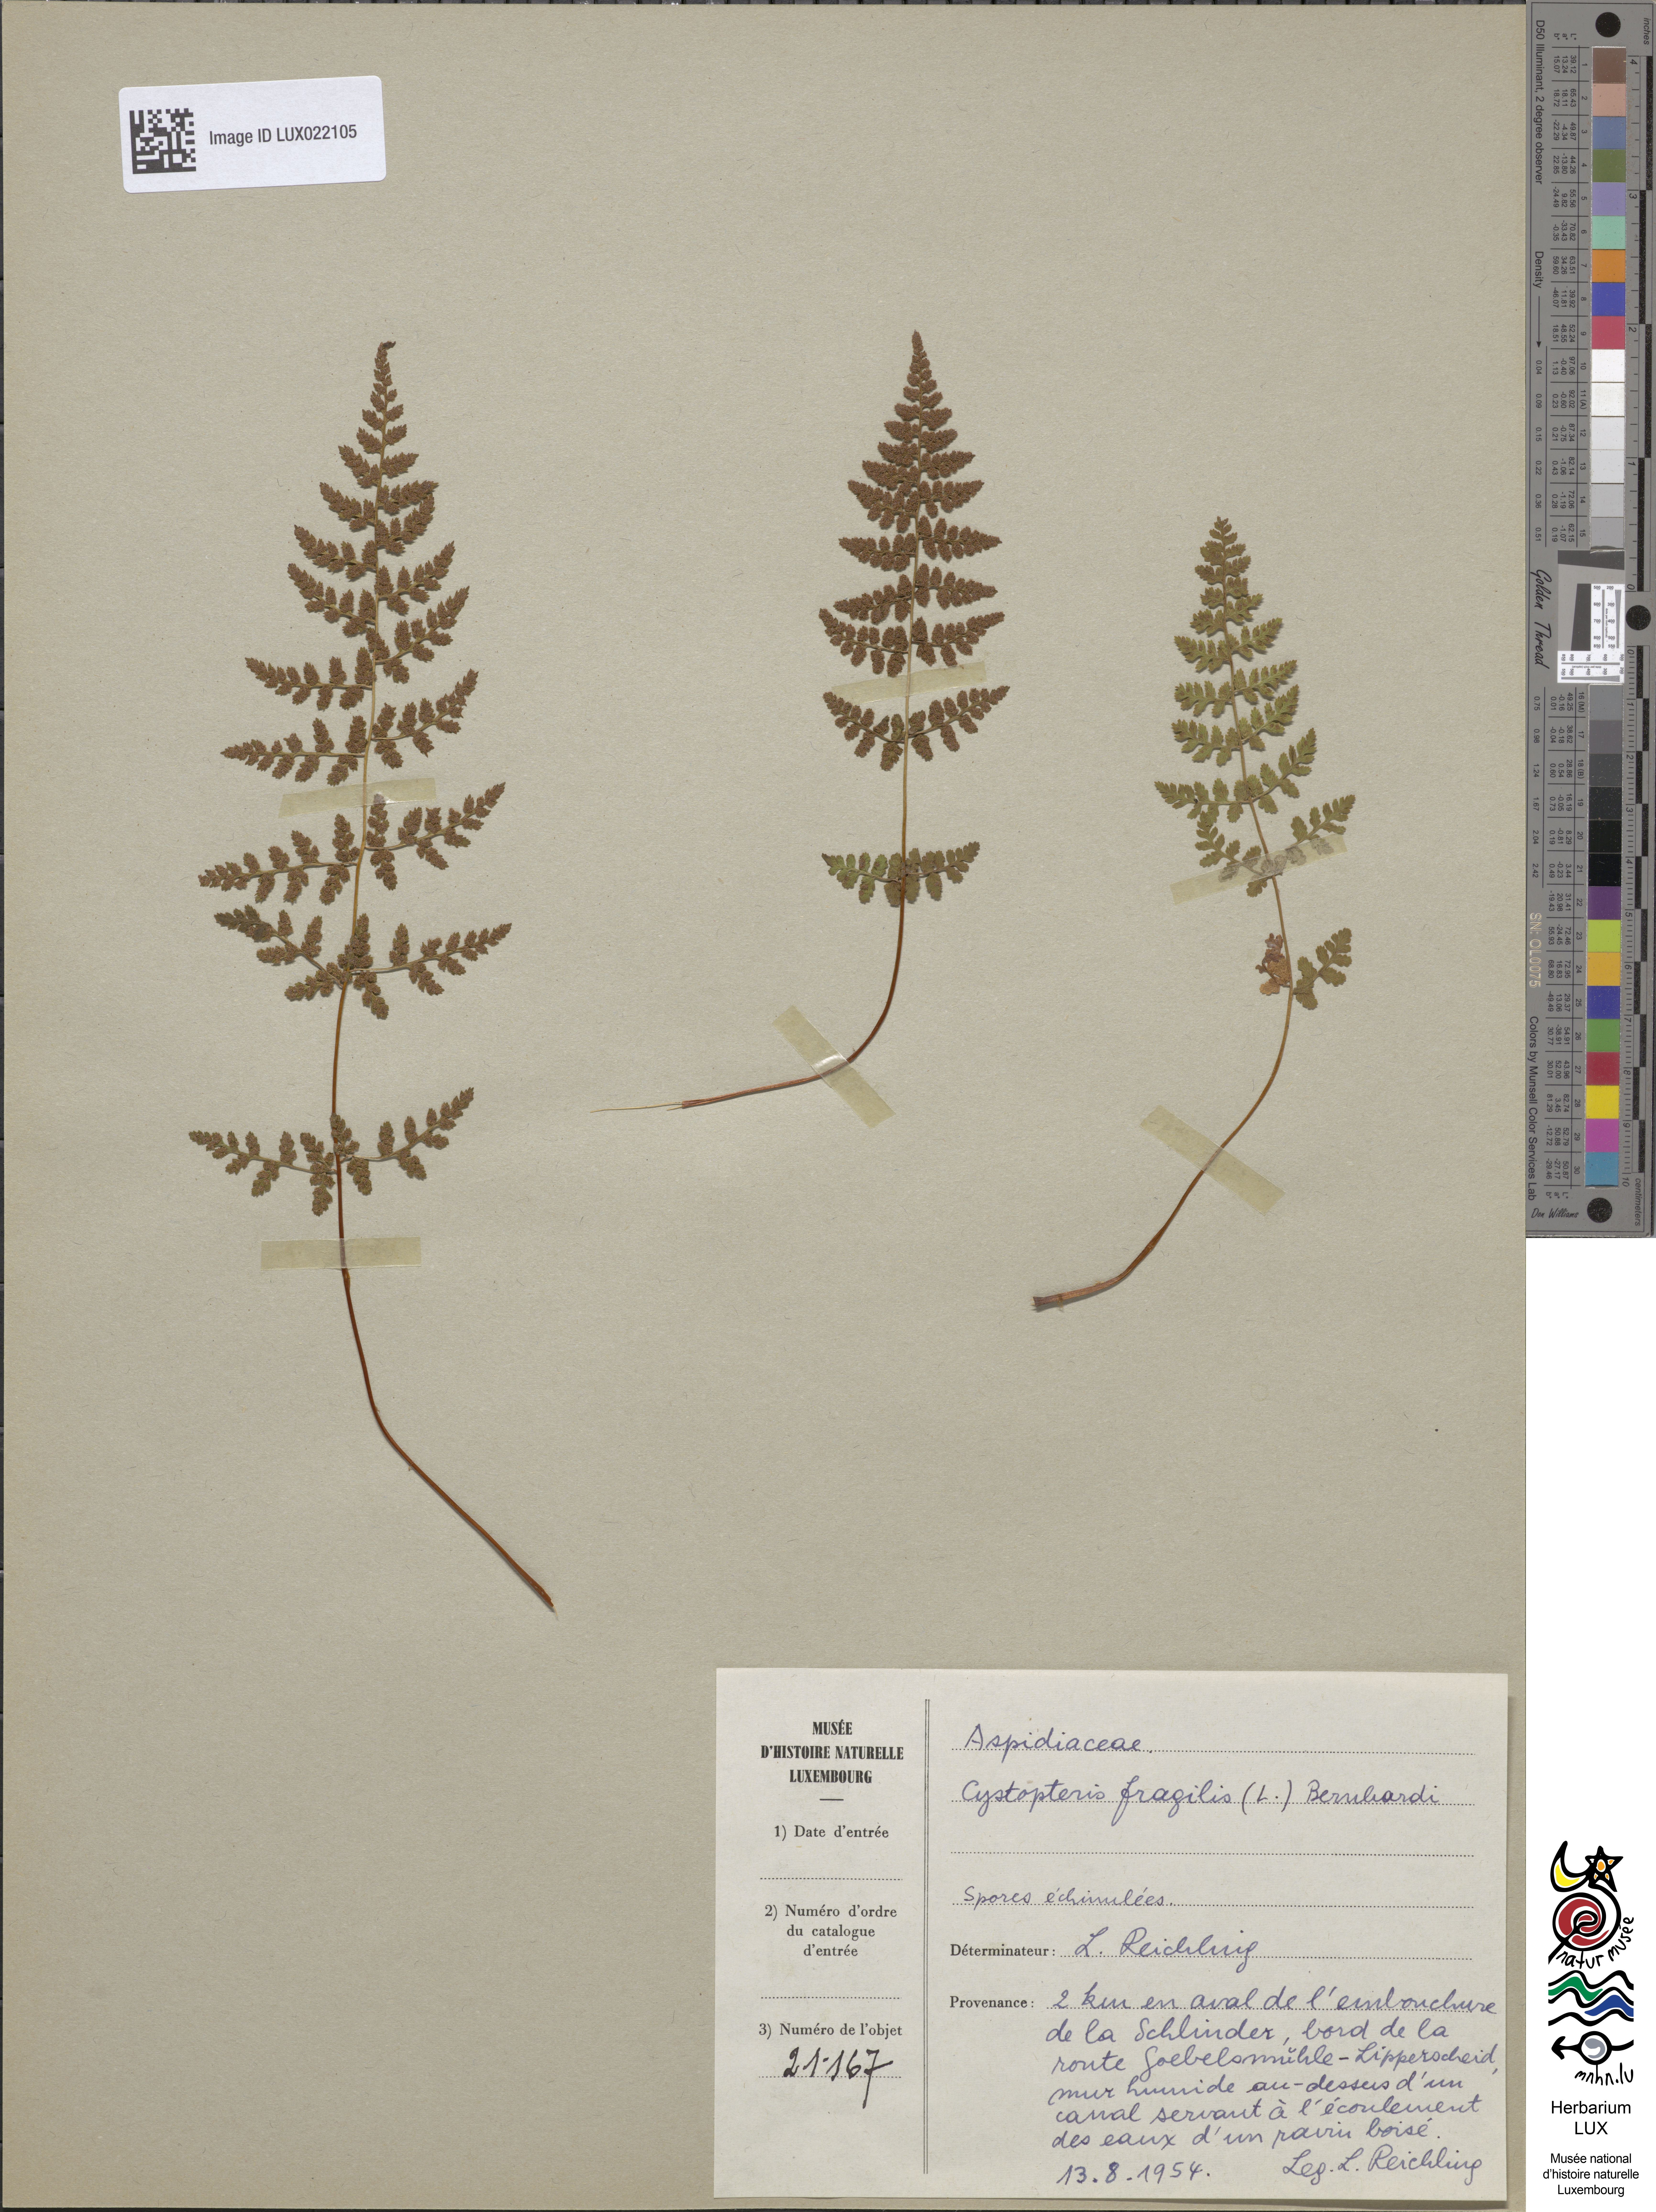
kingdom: Plantae
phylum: Tracheophyta
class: Polypodiopsida
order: Polypodiales
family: Cystopteridaceae
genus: Cystopteris
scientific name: Cystopteris fragilis
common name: Brittle bladder fern
